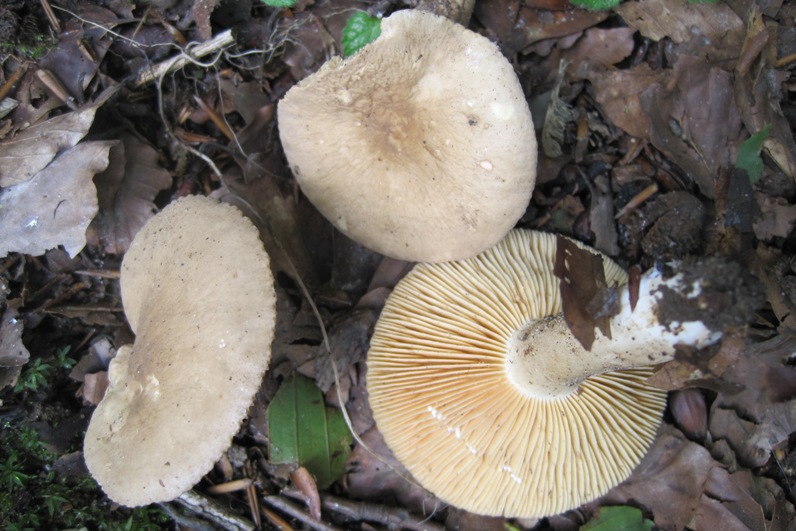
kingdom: Fungi
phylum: Basidiomycota
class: Agaricomycetes
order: Russulales
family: Russulaceae
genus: Lactarius
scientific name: Lactarius ruginosus
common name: gråbrun mælkehat
